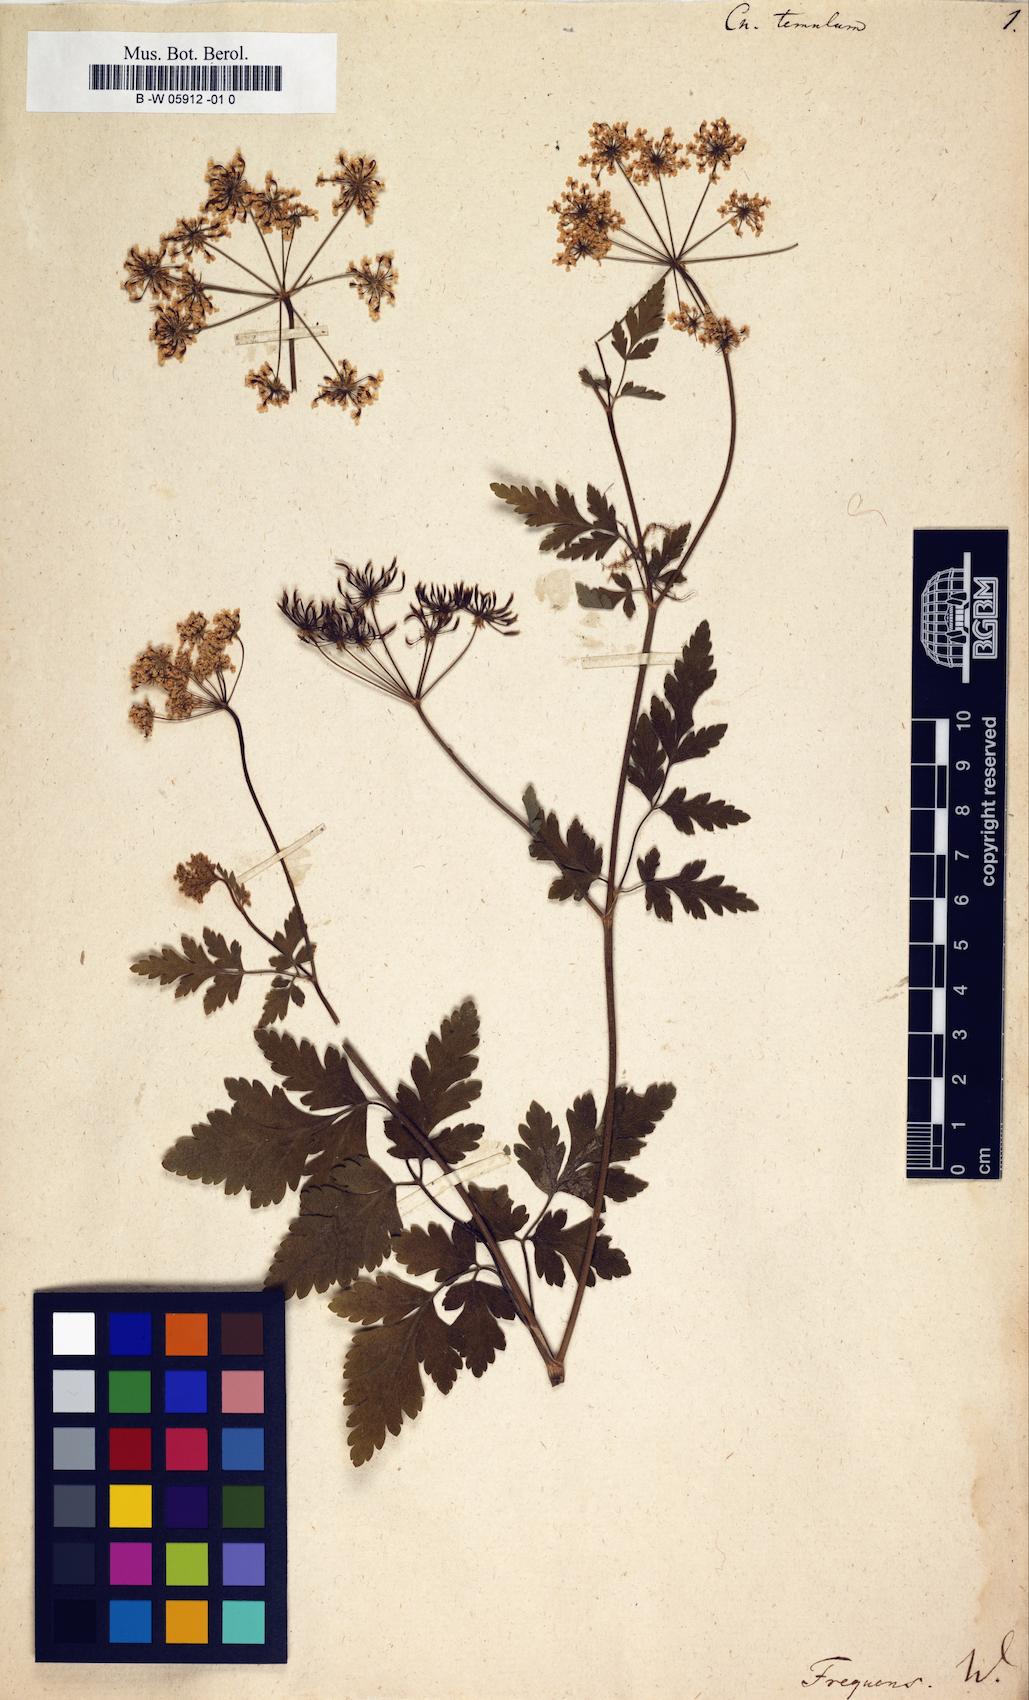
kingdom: Plantae
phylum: Tracheophyta
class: Magnoliopsida
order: Apiales
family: Apiaceae
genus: Chaerophyllum
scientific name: Chaerophyllum temulum
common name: Rough chervil
